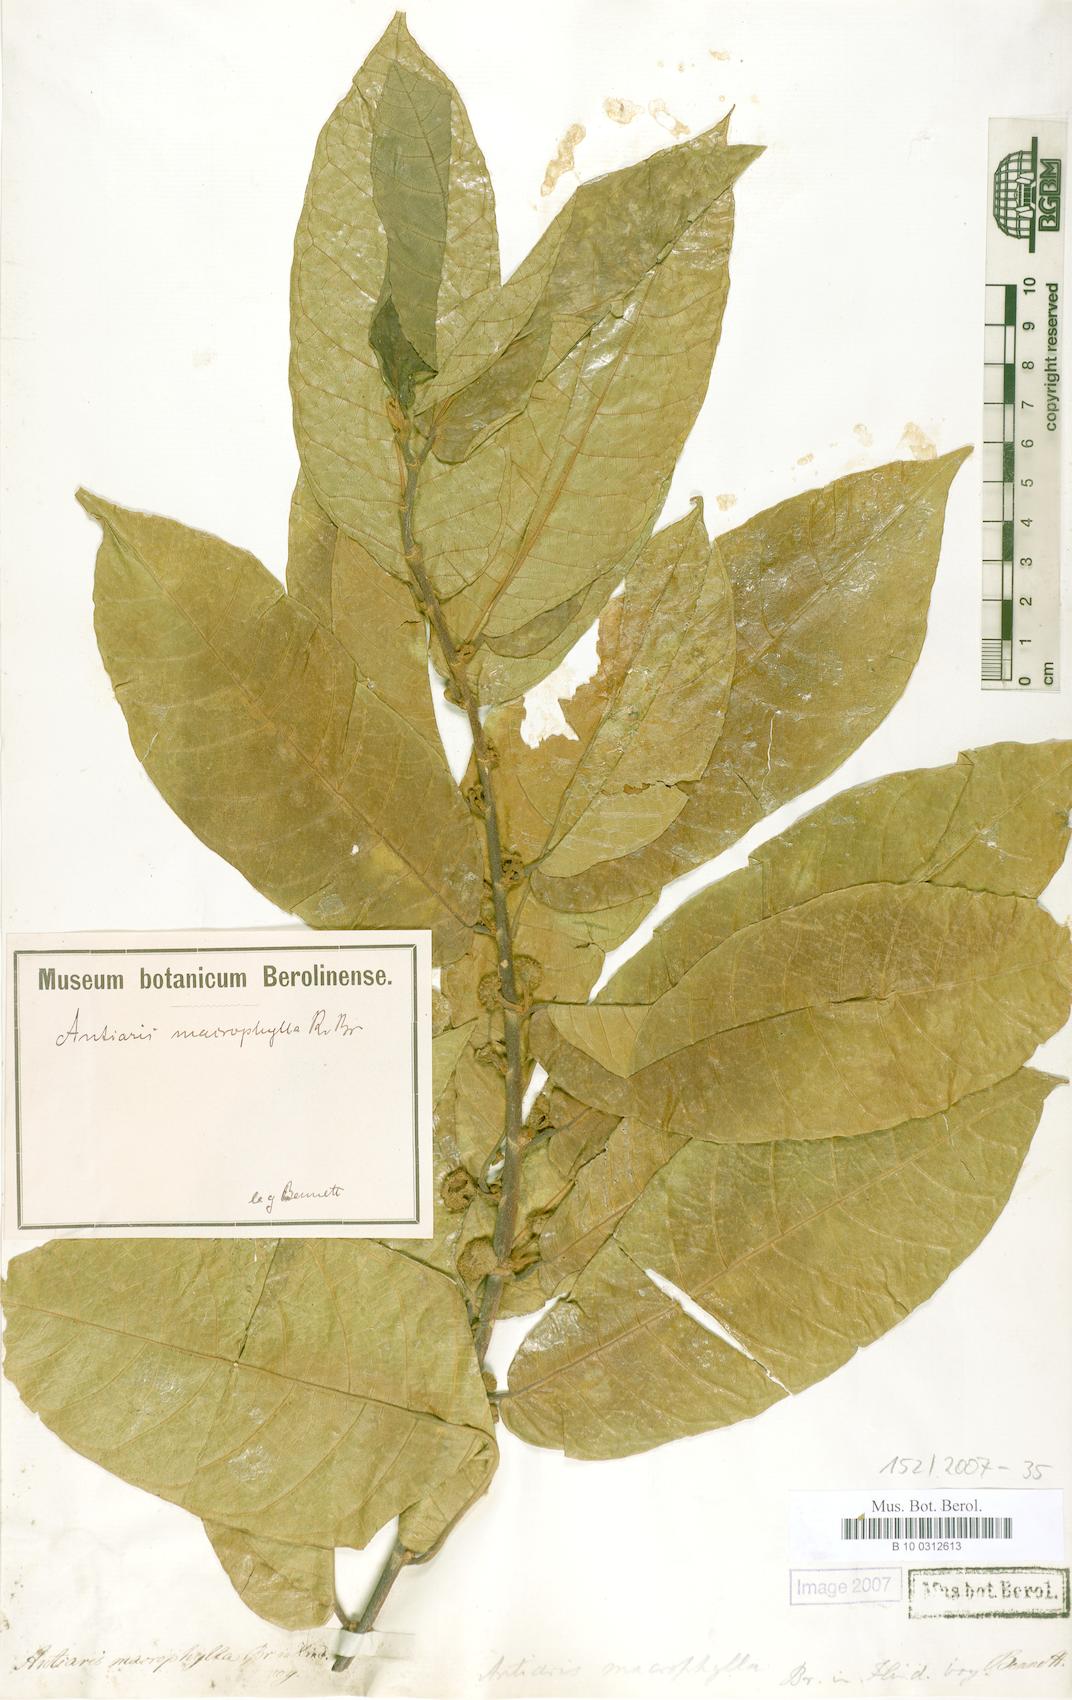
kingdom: Plantae
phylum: Tracheophyta
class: Magnoliopsida
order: Rosales
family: Moraceae
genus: Antiaris
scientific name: Antiaris toxicaria
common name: Sackingtree
